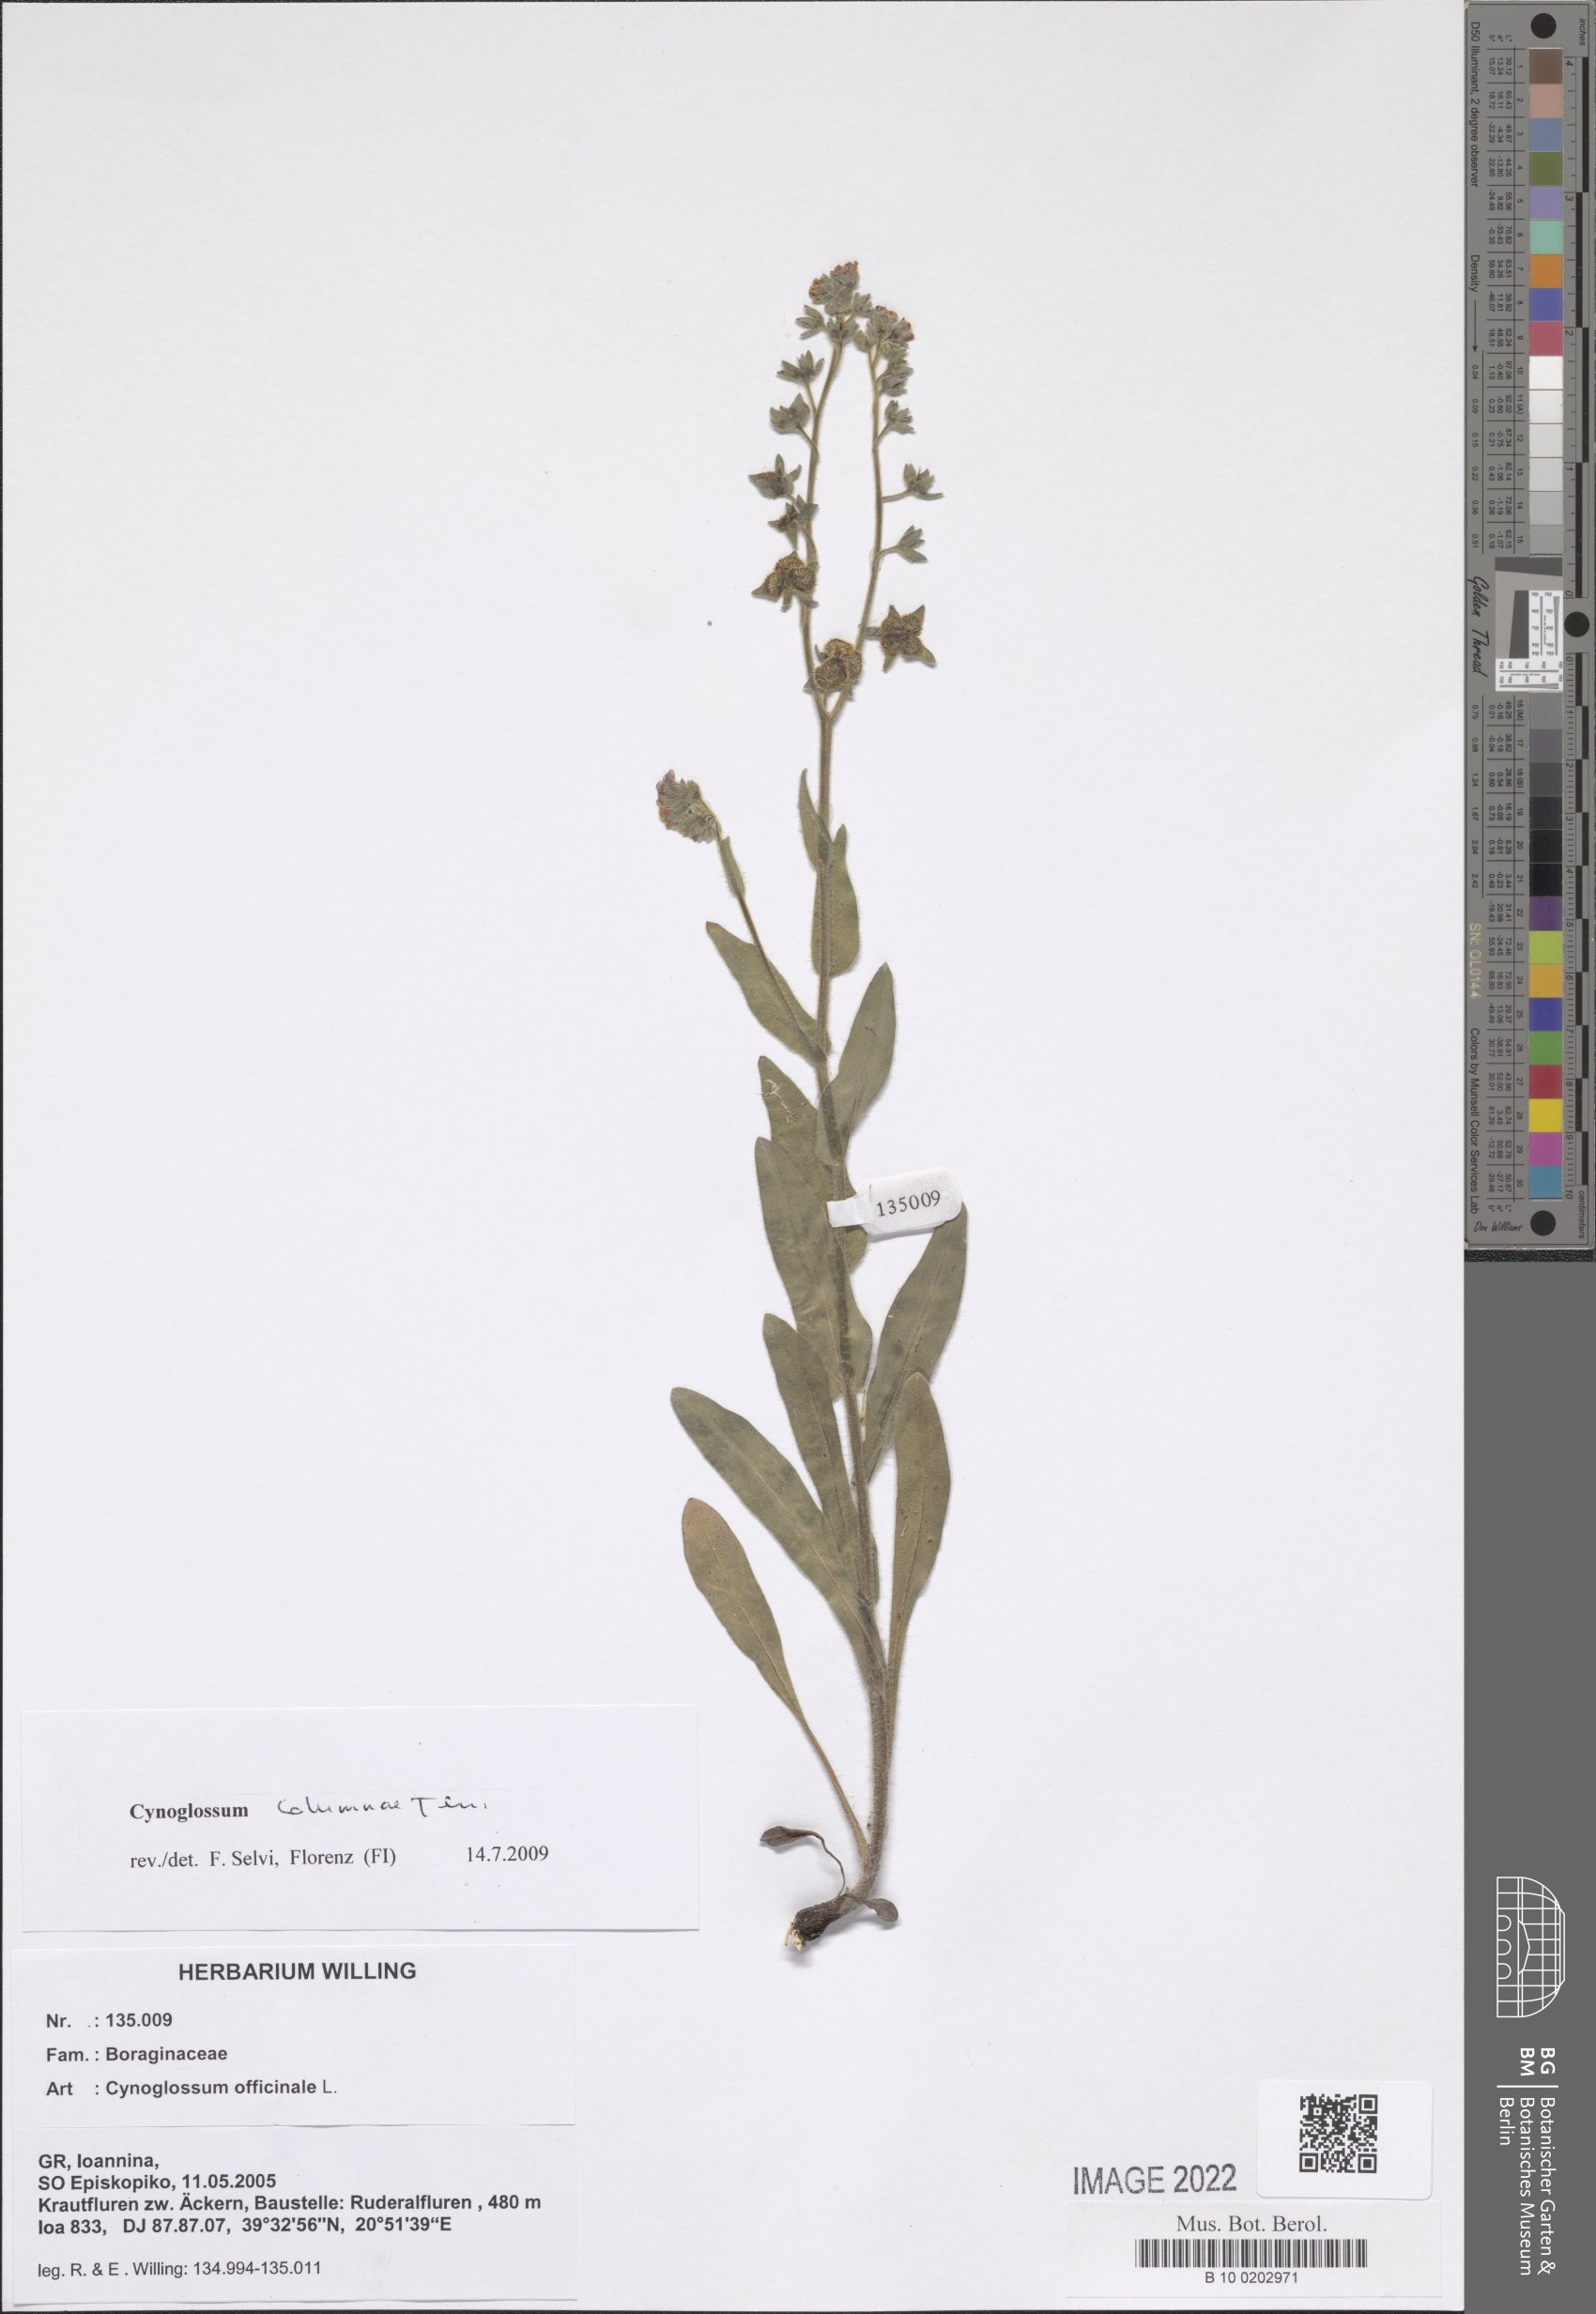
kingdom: Plantae
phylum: Tracheophyta
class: Magnoliopsida
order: Boraginales
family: Boraginaceae
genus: Rindera
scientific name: Rindera columnae
